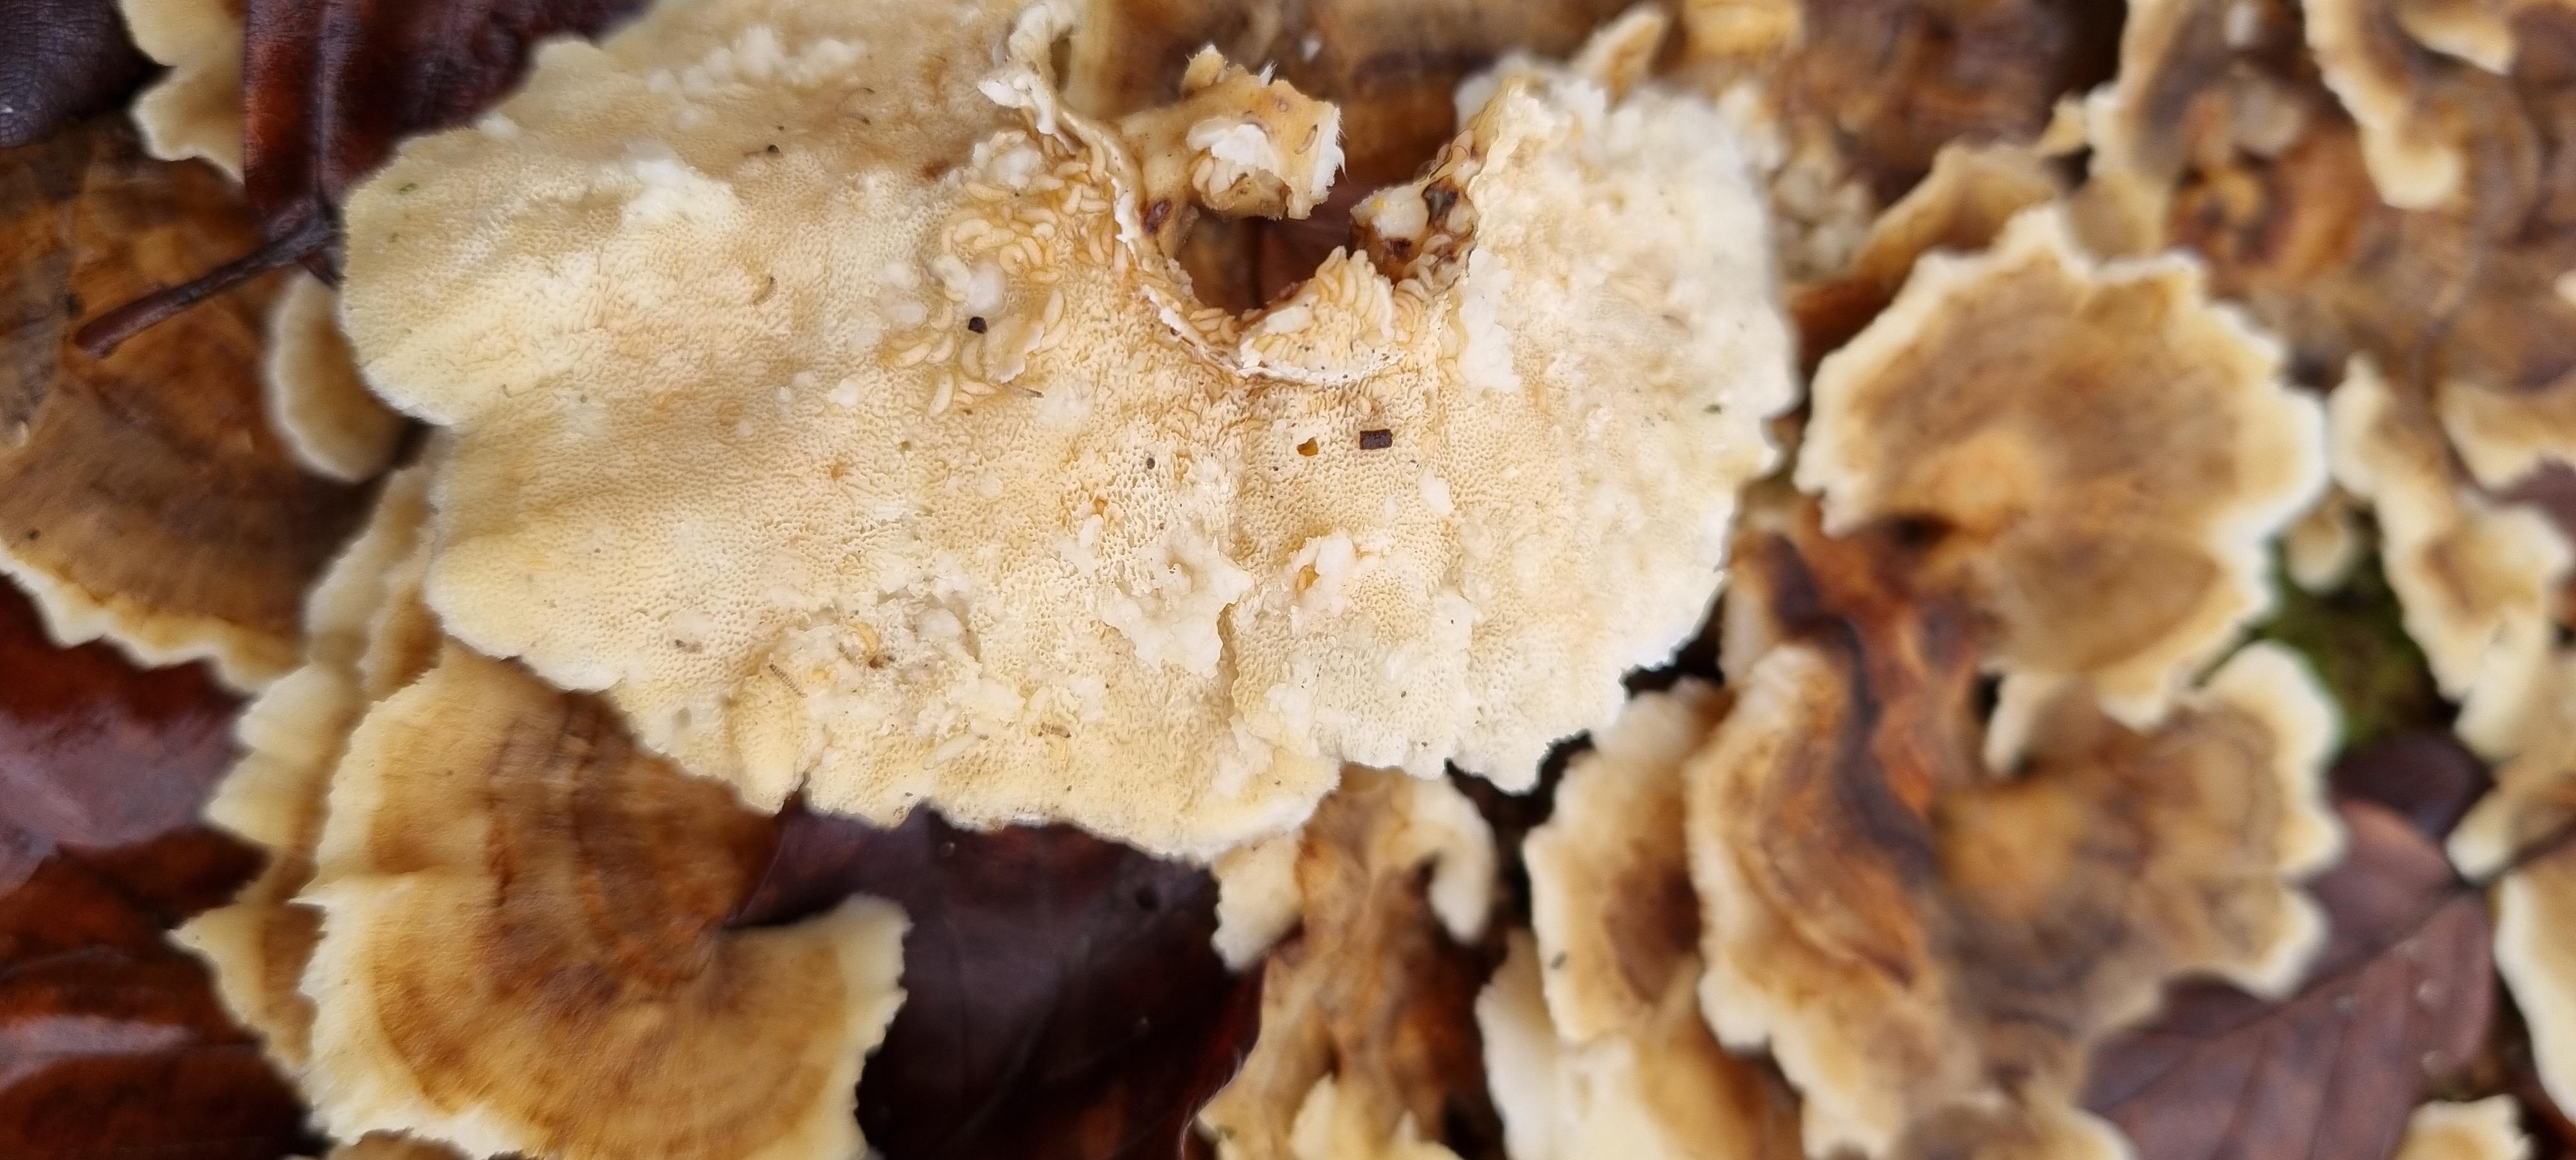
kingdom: Fungi
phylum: Basidiomycota
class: Agaricomycetes
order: Polyporales
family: Polyporaceae
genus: Trametes
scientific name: Trametes versicolor
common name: broget læderporesvamp
